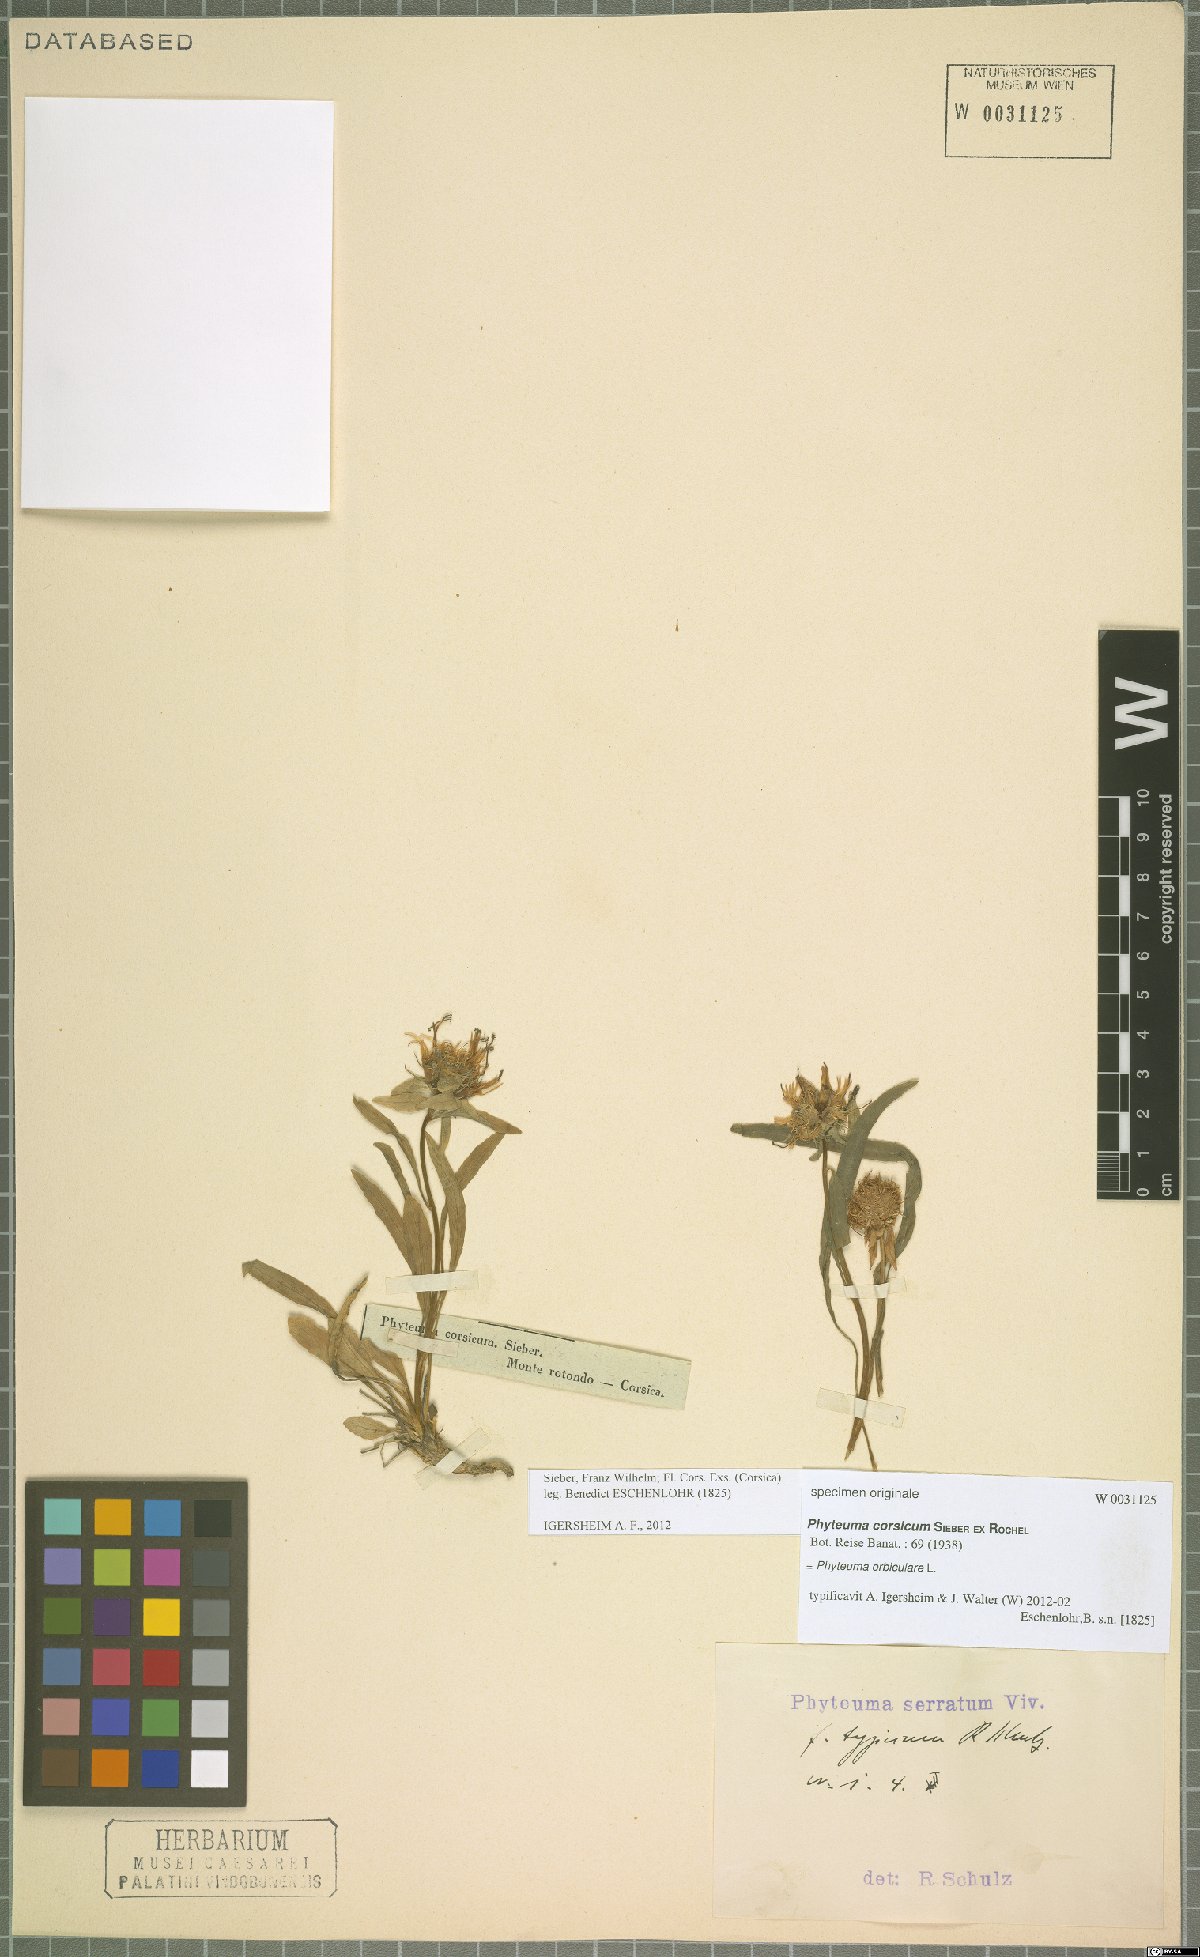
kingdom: Plantae
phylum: Tracheophyta
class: Magnoliopsida
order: Asterales
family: Campanulaceae
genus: Phyteuma
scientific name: Phyteuma orbiculare
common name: Round-headed rampion
